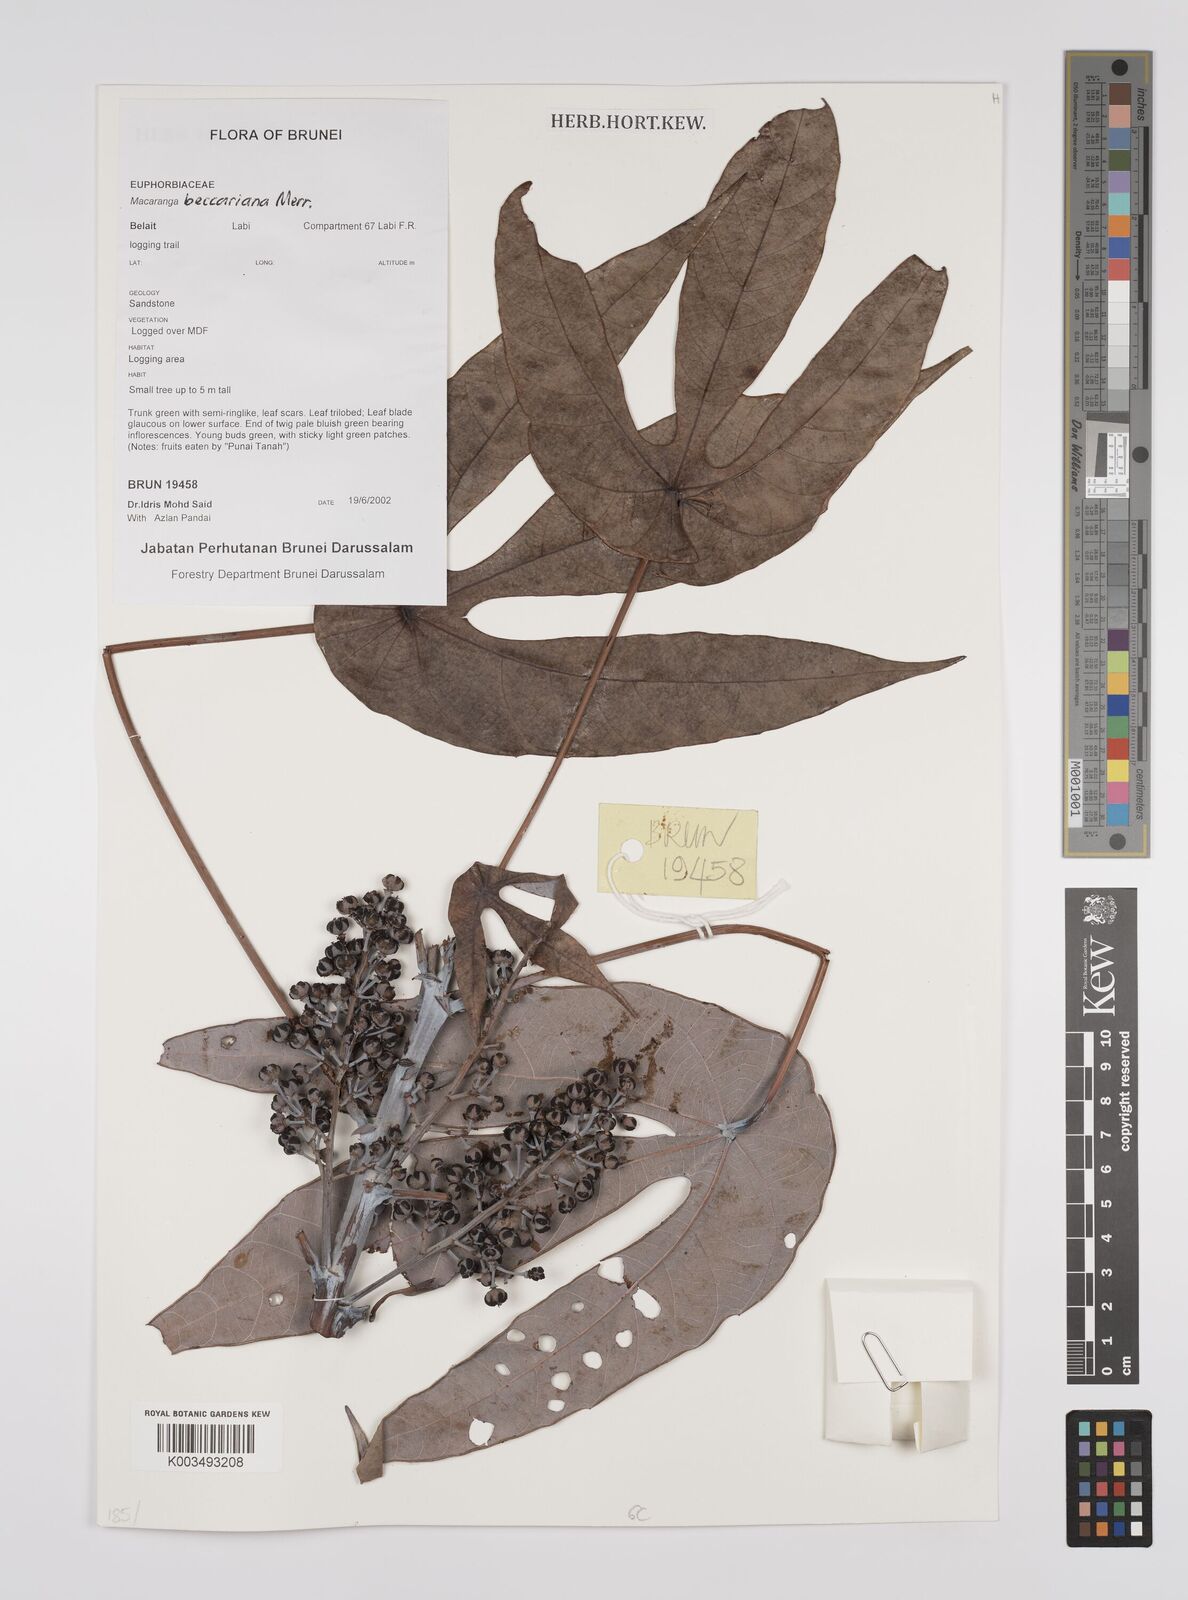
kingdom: Plantae
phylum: Tracheophyta
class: Magnoliopsida
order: Malpighiales
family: Euphorbiaceae
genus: Macaranga
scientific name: Macaranga beccariana
